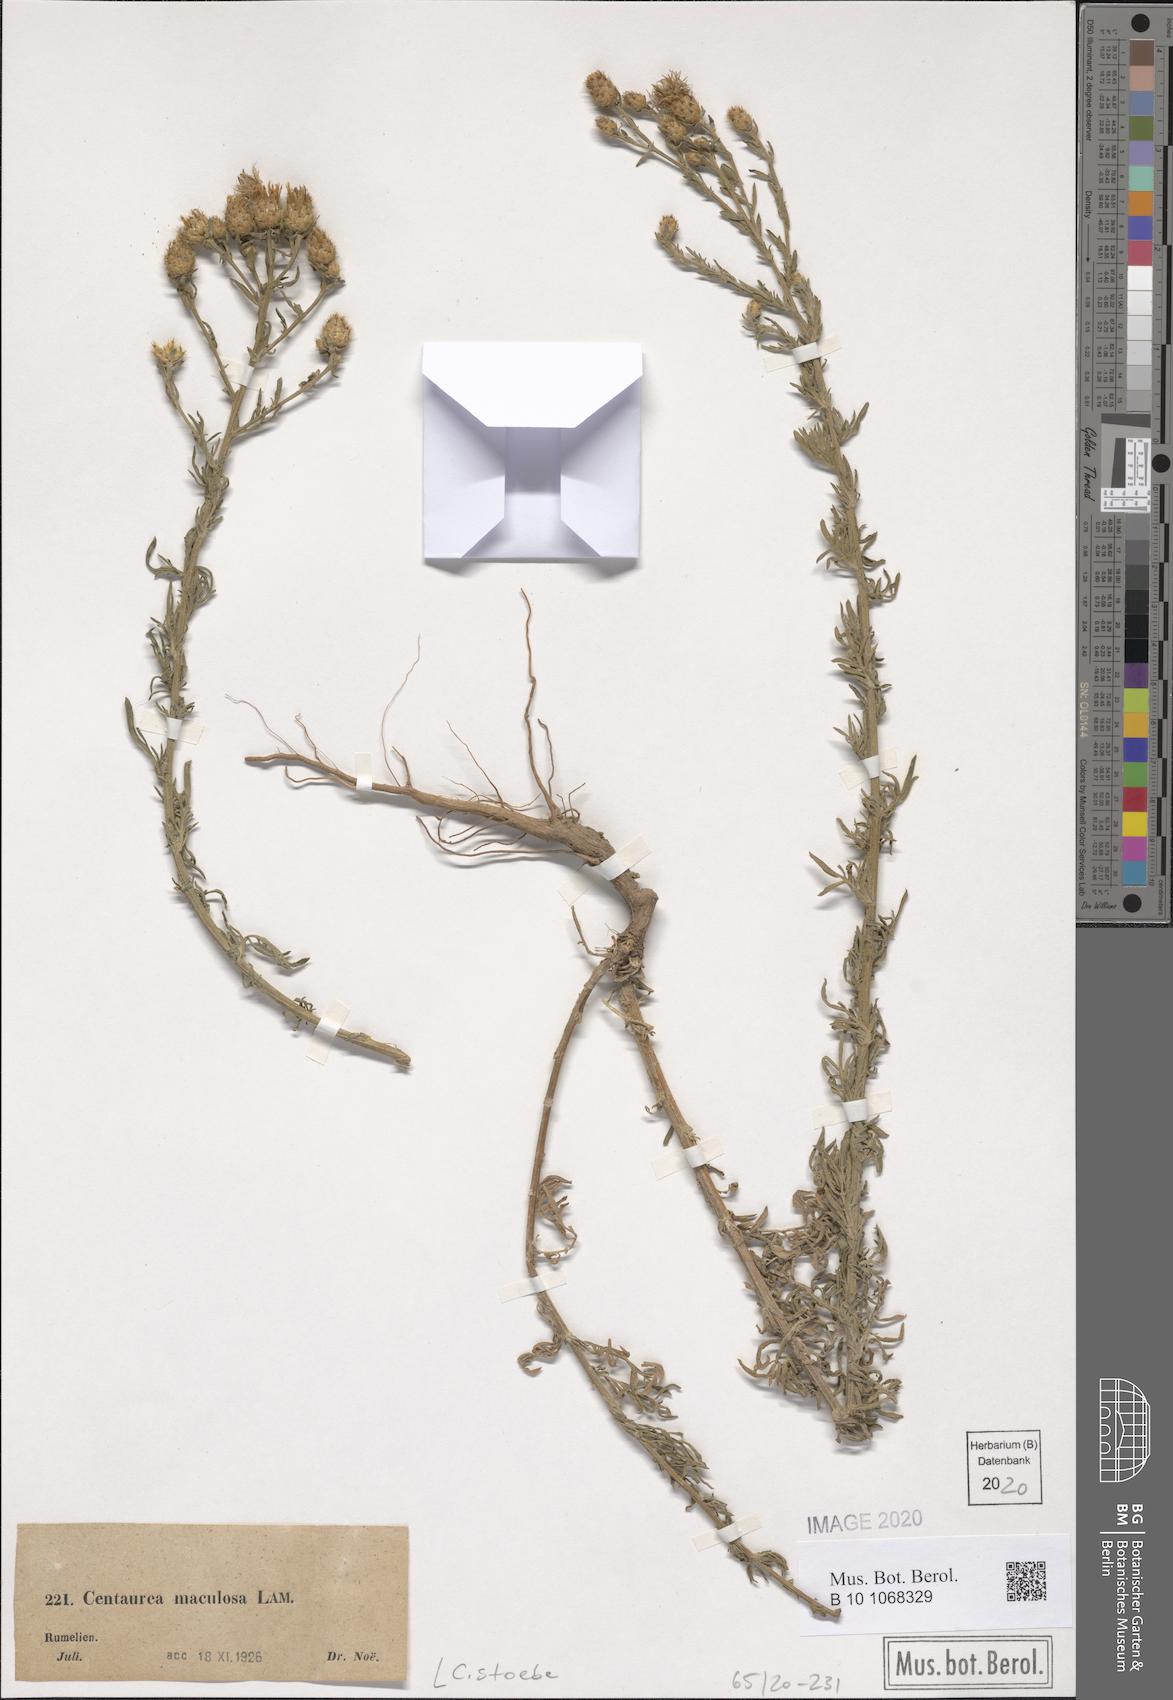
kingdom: Plantae
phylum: Tracheophyta
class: Magnoliopsida
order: Asterales
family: Asteraceae
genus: Centaurea
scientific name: Centaurea stoebe
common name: Spotted knapweed
